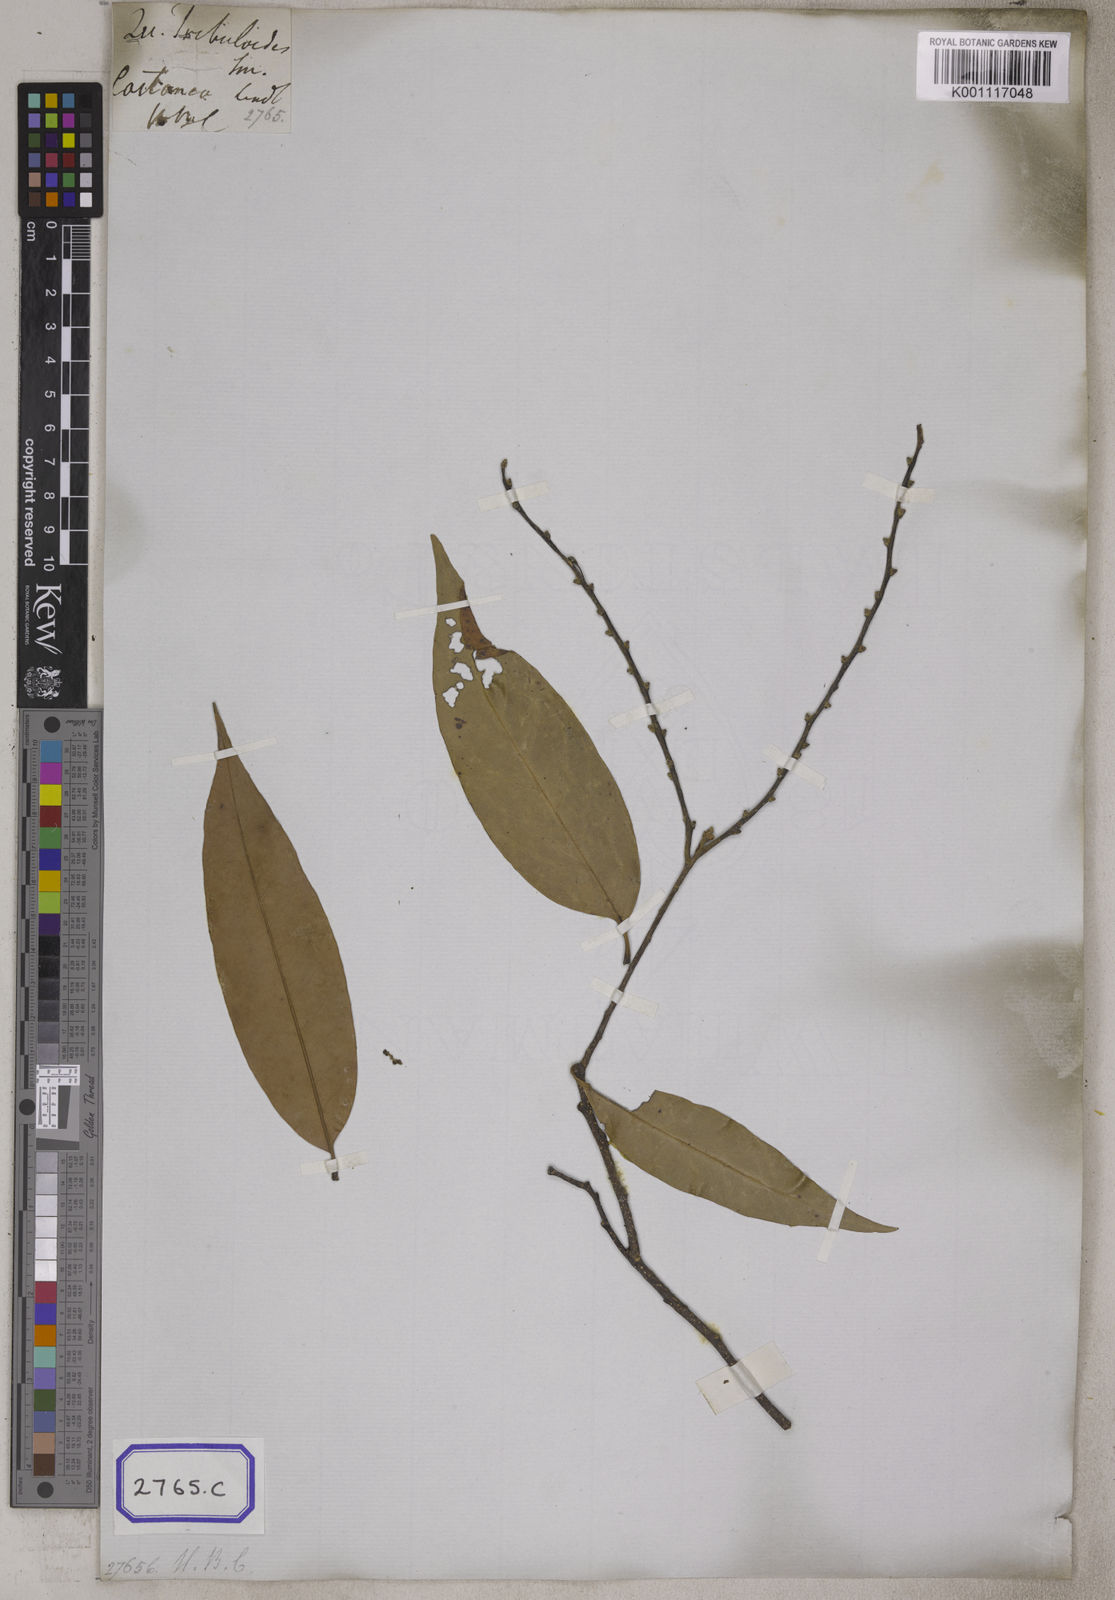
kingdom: Plantae
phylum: Tracheophyta
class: Magnoliopsida
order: Fagales
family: Fagaceae
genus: Castanopsis
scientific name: Castanopsis tribuloides
